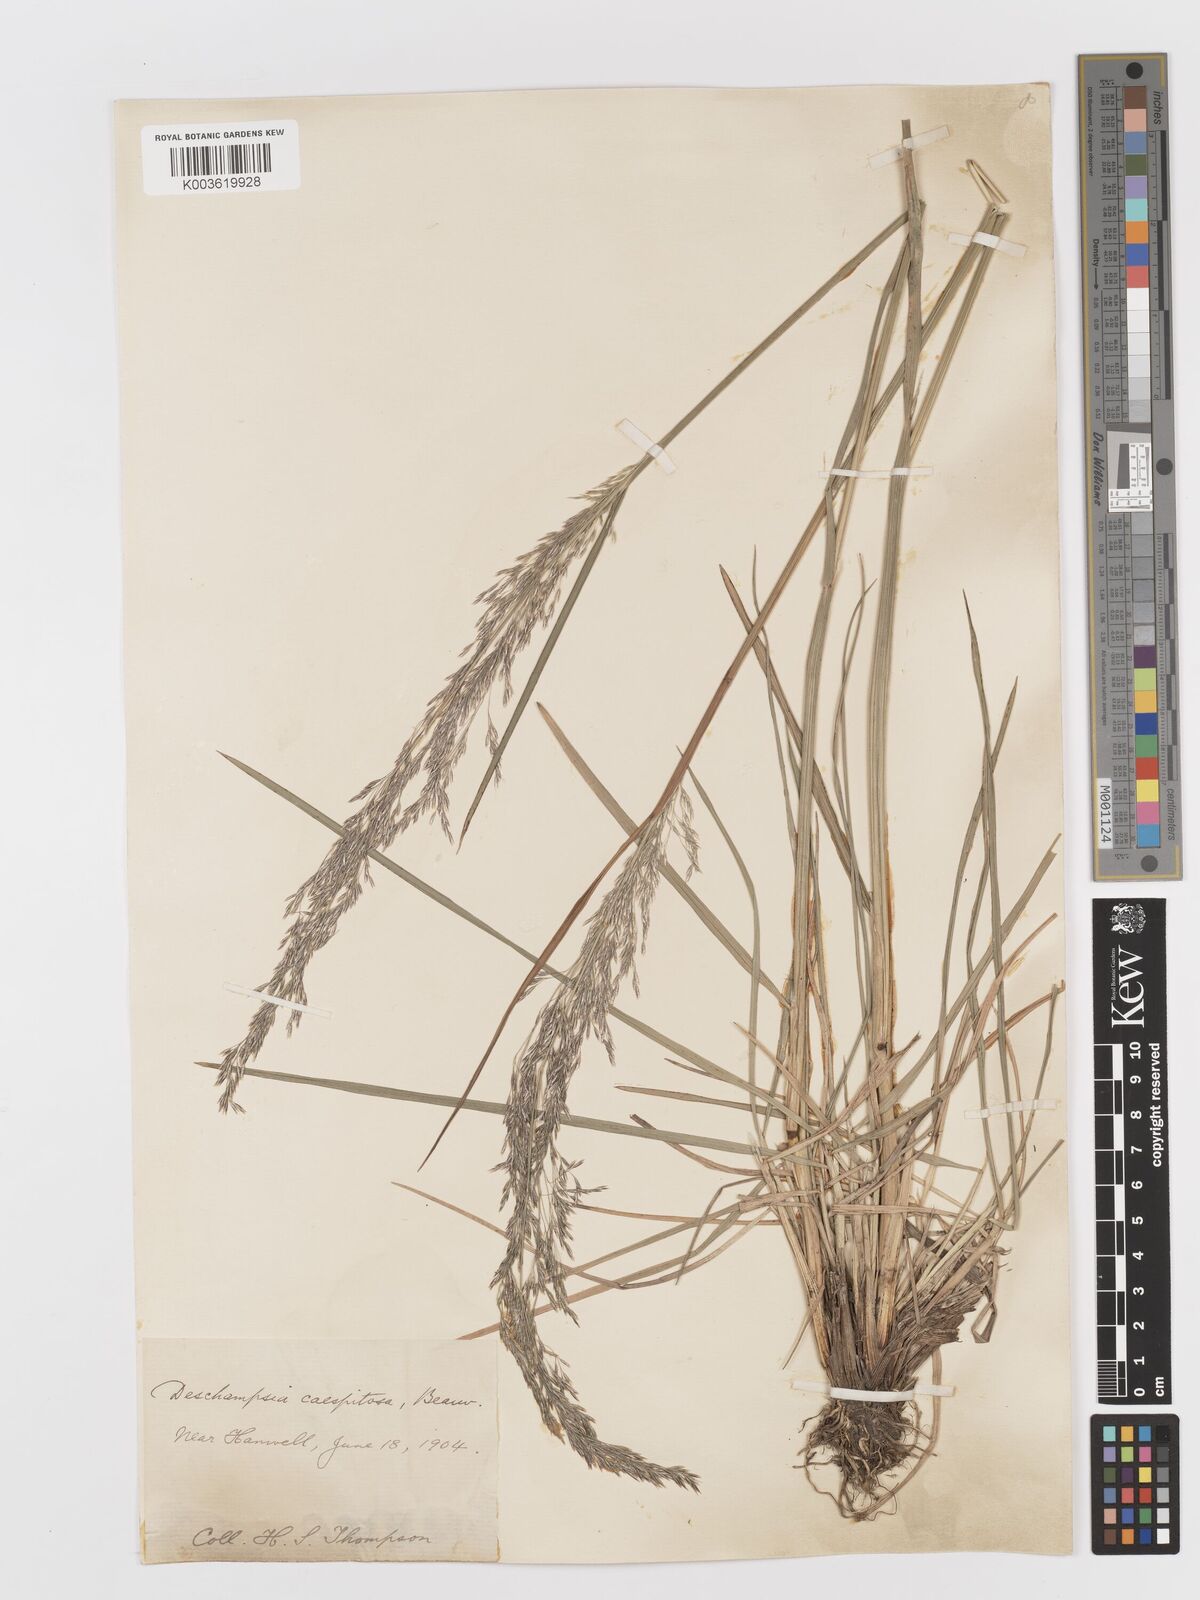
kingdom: Plantae
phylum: Tracheophyta
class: Liliopsida
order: Poales
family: Poaceae
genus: Deschampsia
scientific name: Deschampsia
